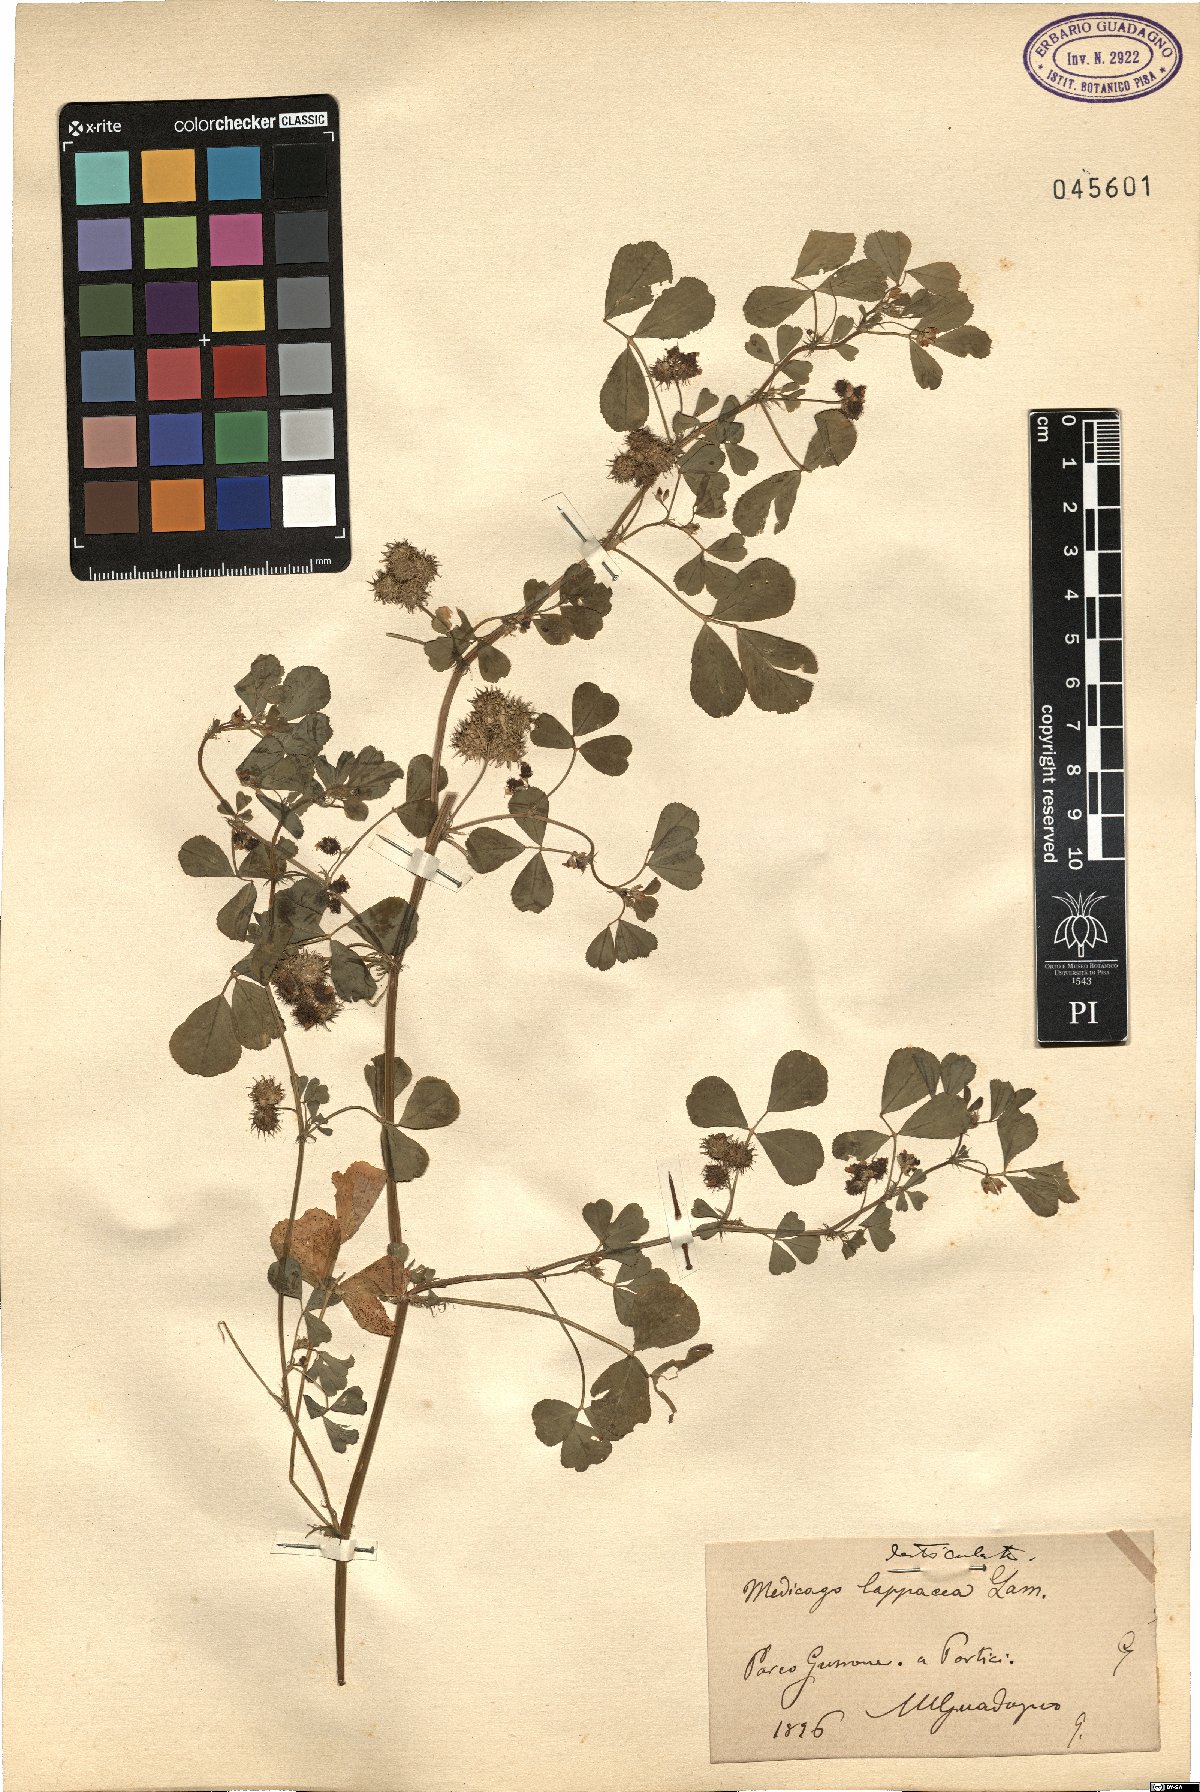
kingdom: Plantae
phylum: Tracheophyta
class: Magnoliopsida
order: Fabales
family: Fabaceae
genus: Medicago
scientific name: Medicago polymorpha
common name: Burclover
